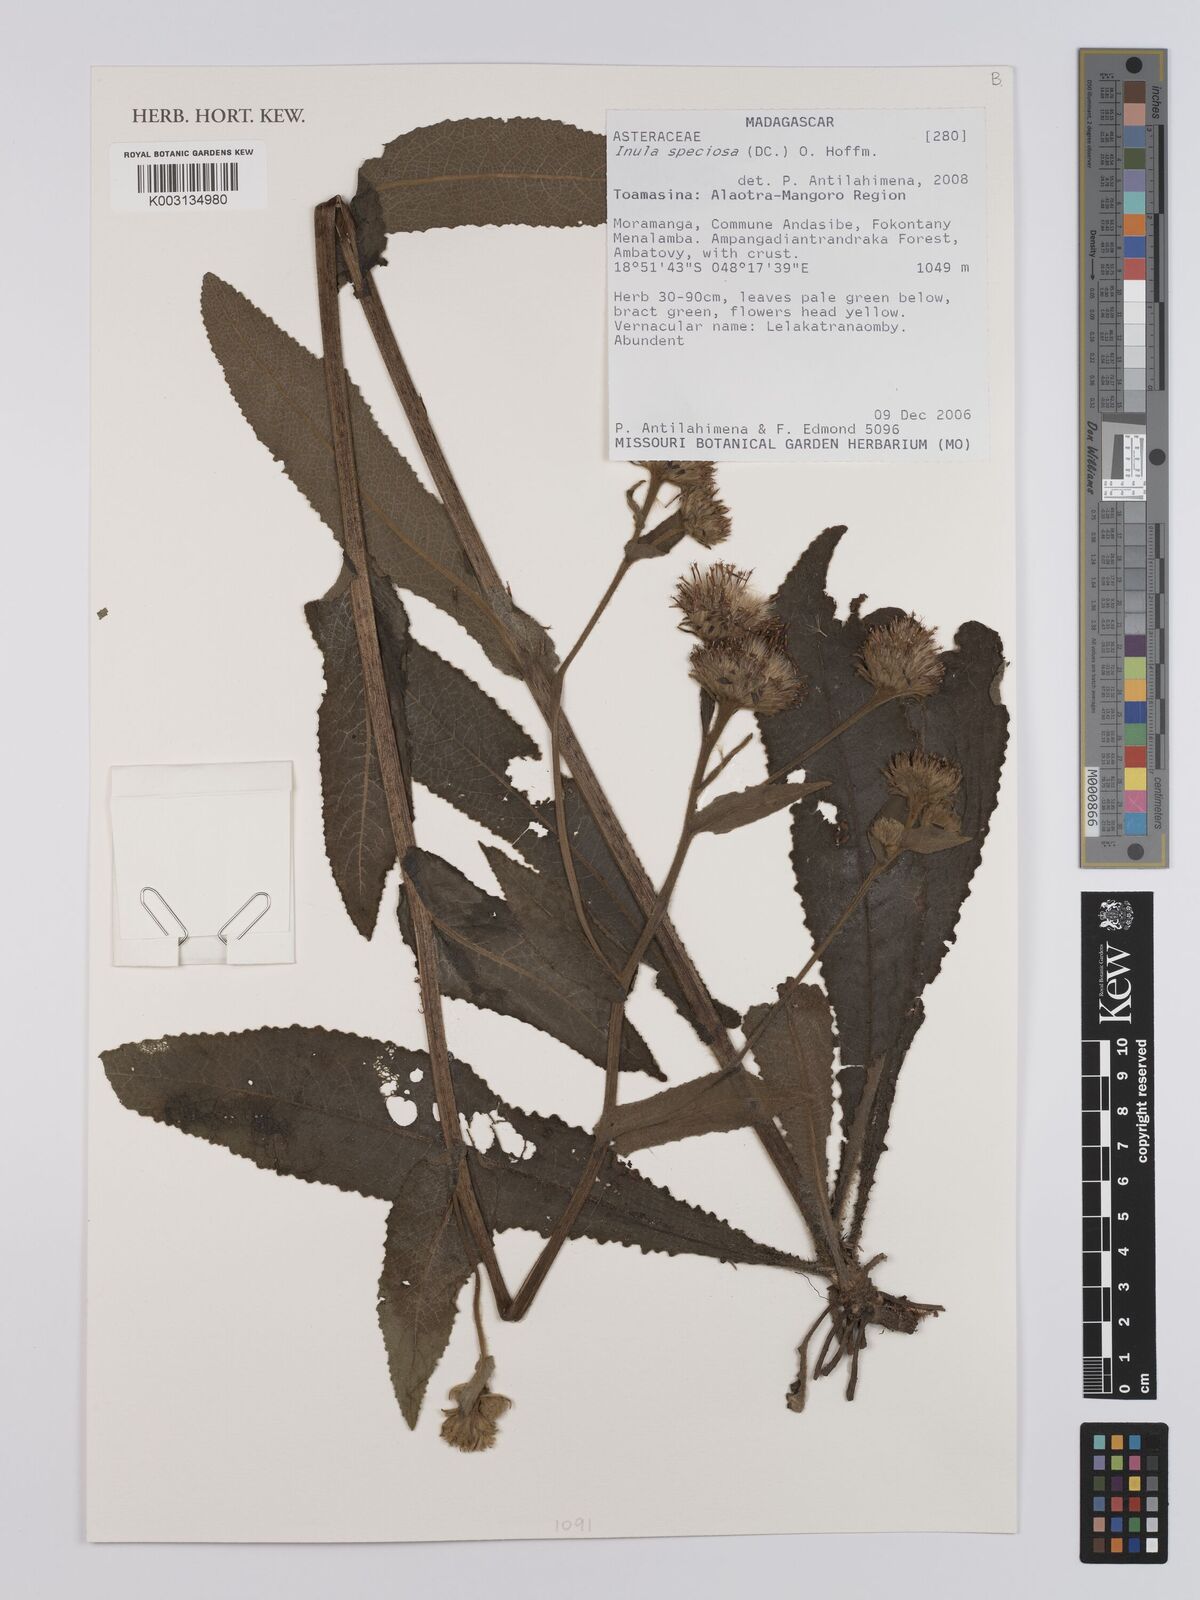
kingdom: Plantae
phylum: Tracheophyta
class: Magnoliopsida
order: Asterales
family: Asteraceae
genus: Inula
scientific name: Inula speciosa
